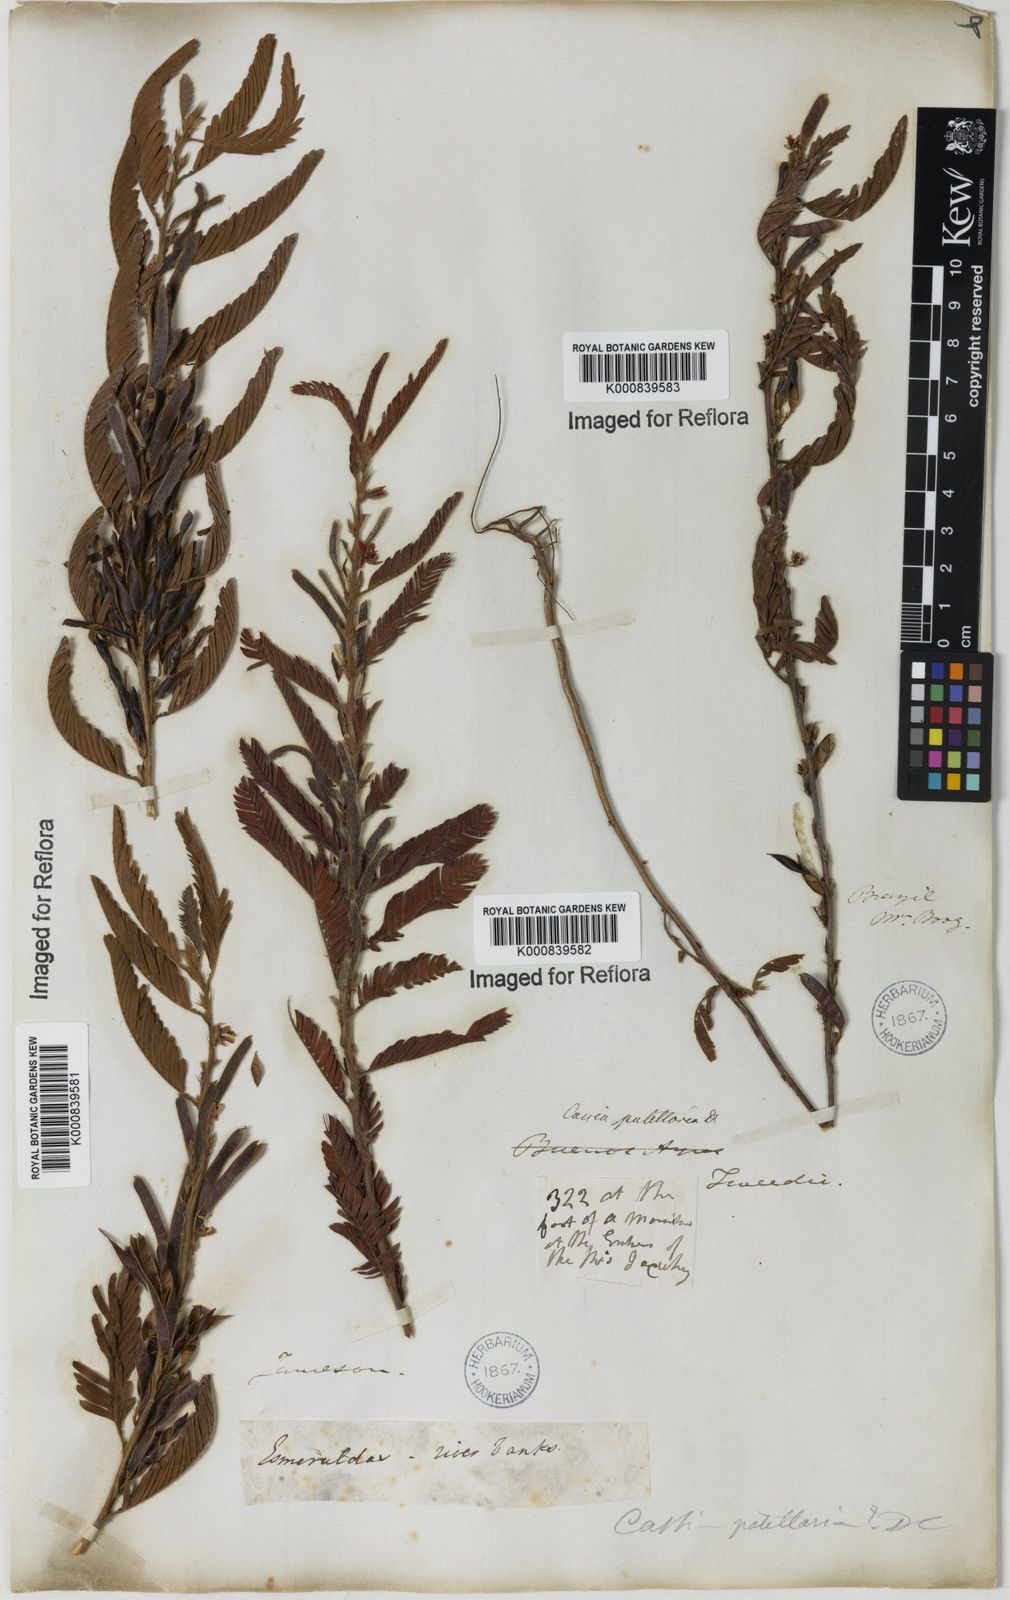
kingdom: Plantae
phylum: Tracheophyta
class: Magnoliopsida
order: Fabales
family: Fabaceae
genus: Chamaecrista
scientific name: Chamaecrista nictitans
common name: Sensitive cassia
